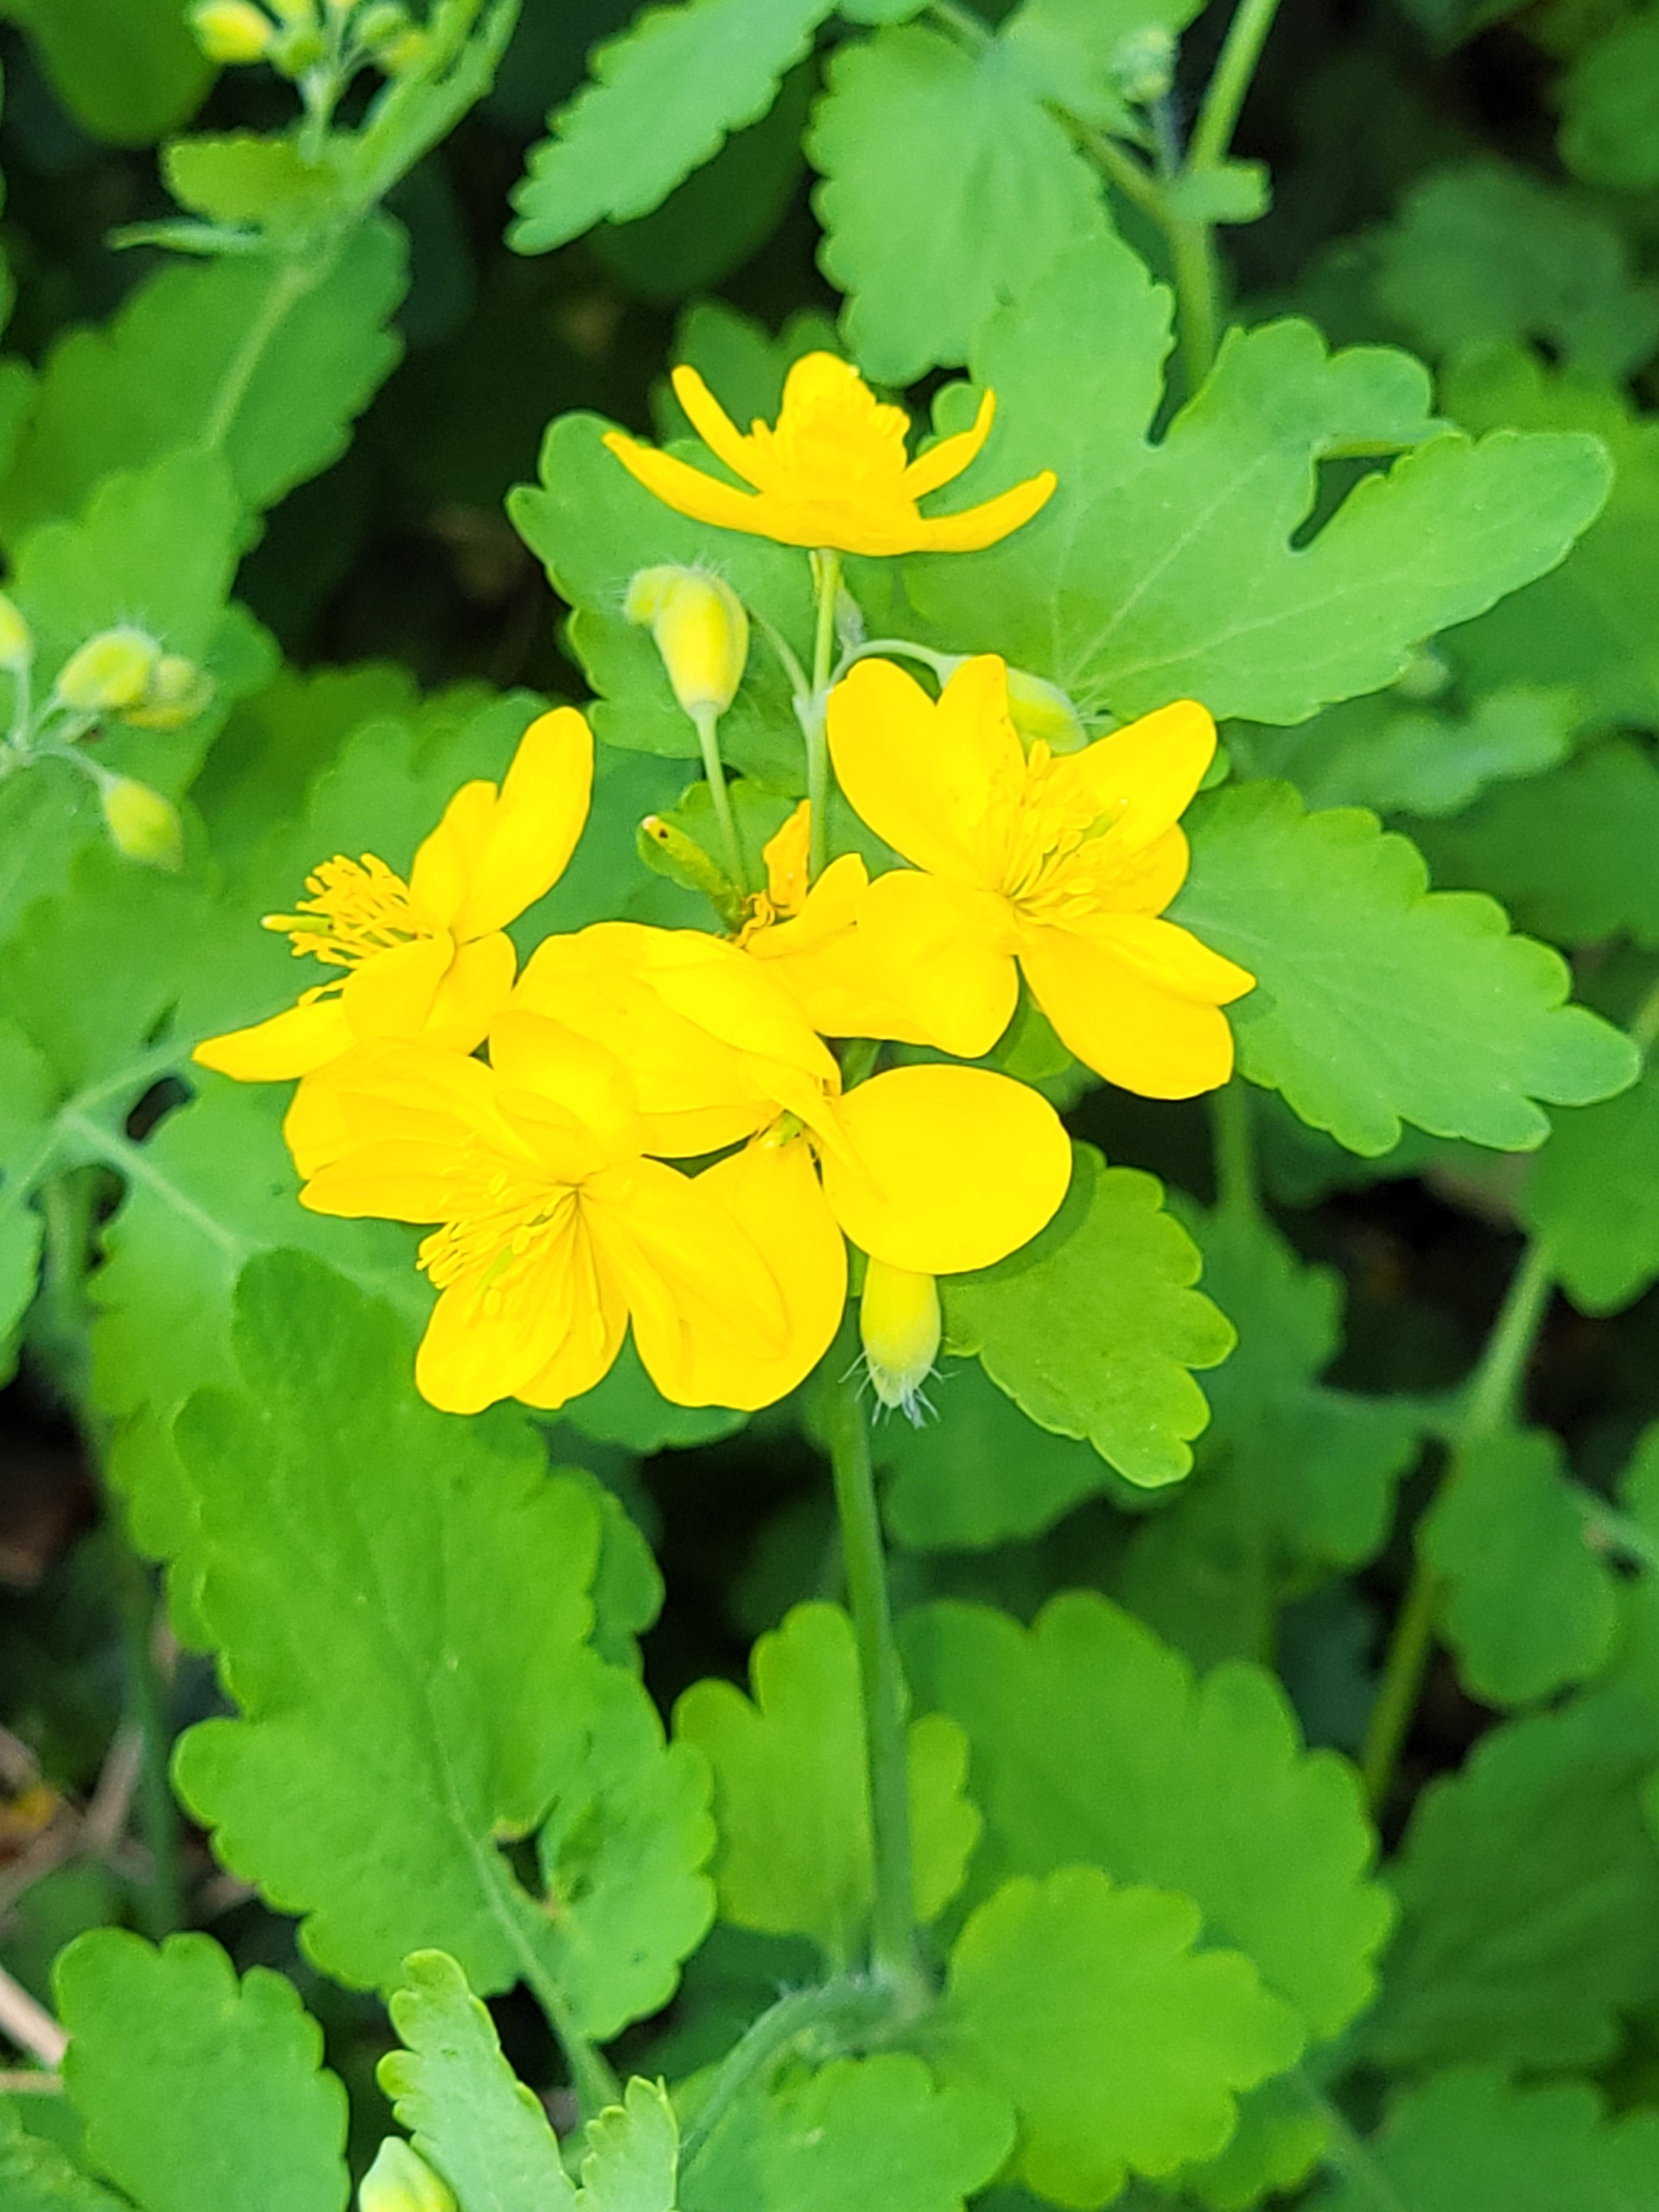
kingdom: Plantae
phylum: Tracheophyta
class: Magnoliopsida
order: Ranunculales
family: Papaveraceae
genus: Chelidonium
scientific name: Chelidonium majus
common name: Svaleurt
